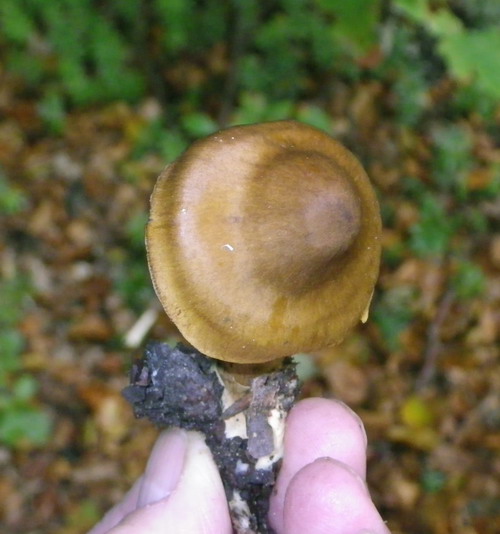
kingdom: Fungi
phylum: Basidiomycota
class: Agaricomycetes
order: Agaricales
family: Cortinariaceae
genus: Cortinarius
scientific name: Cortinarius olivaceofuscus
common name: olivenbrun slørhat
